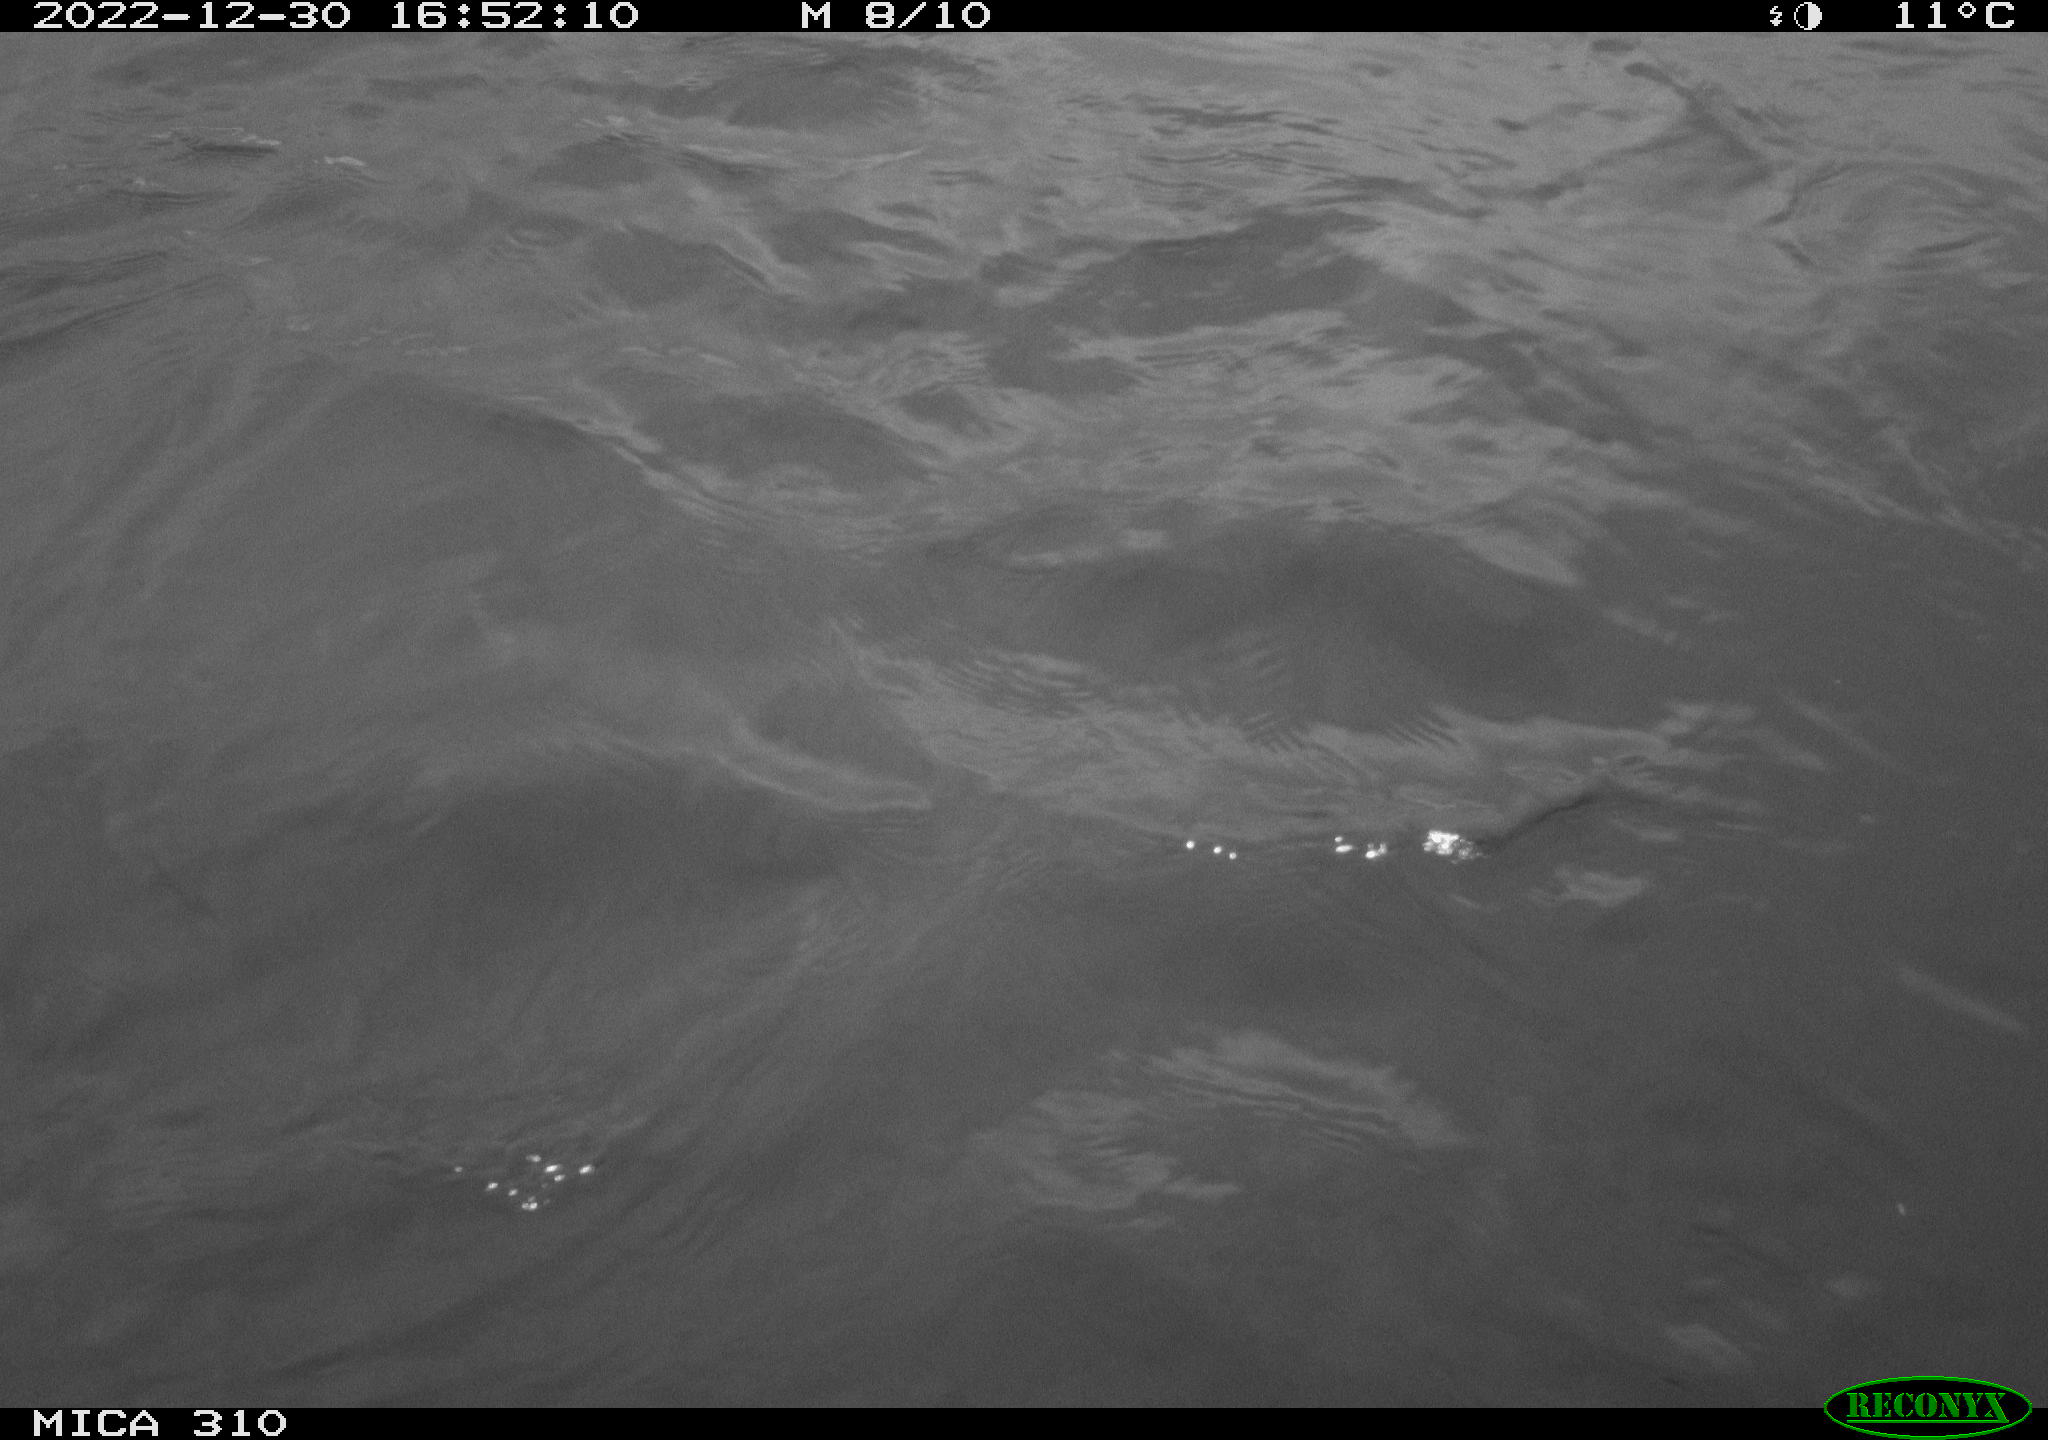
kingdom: Animalia
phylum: Chordata
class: Aves
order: Anseriformes
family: Anatidae
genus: Anas
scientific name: Anas
